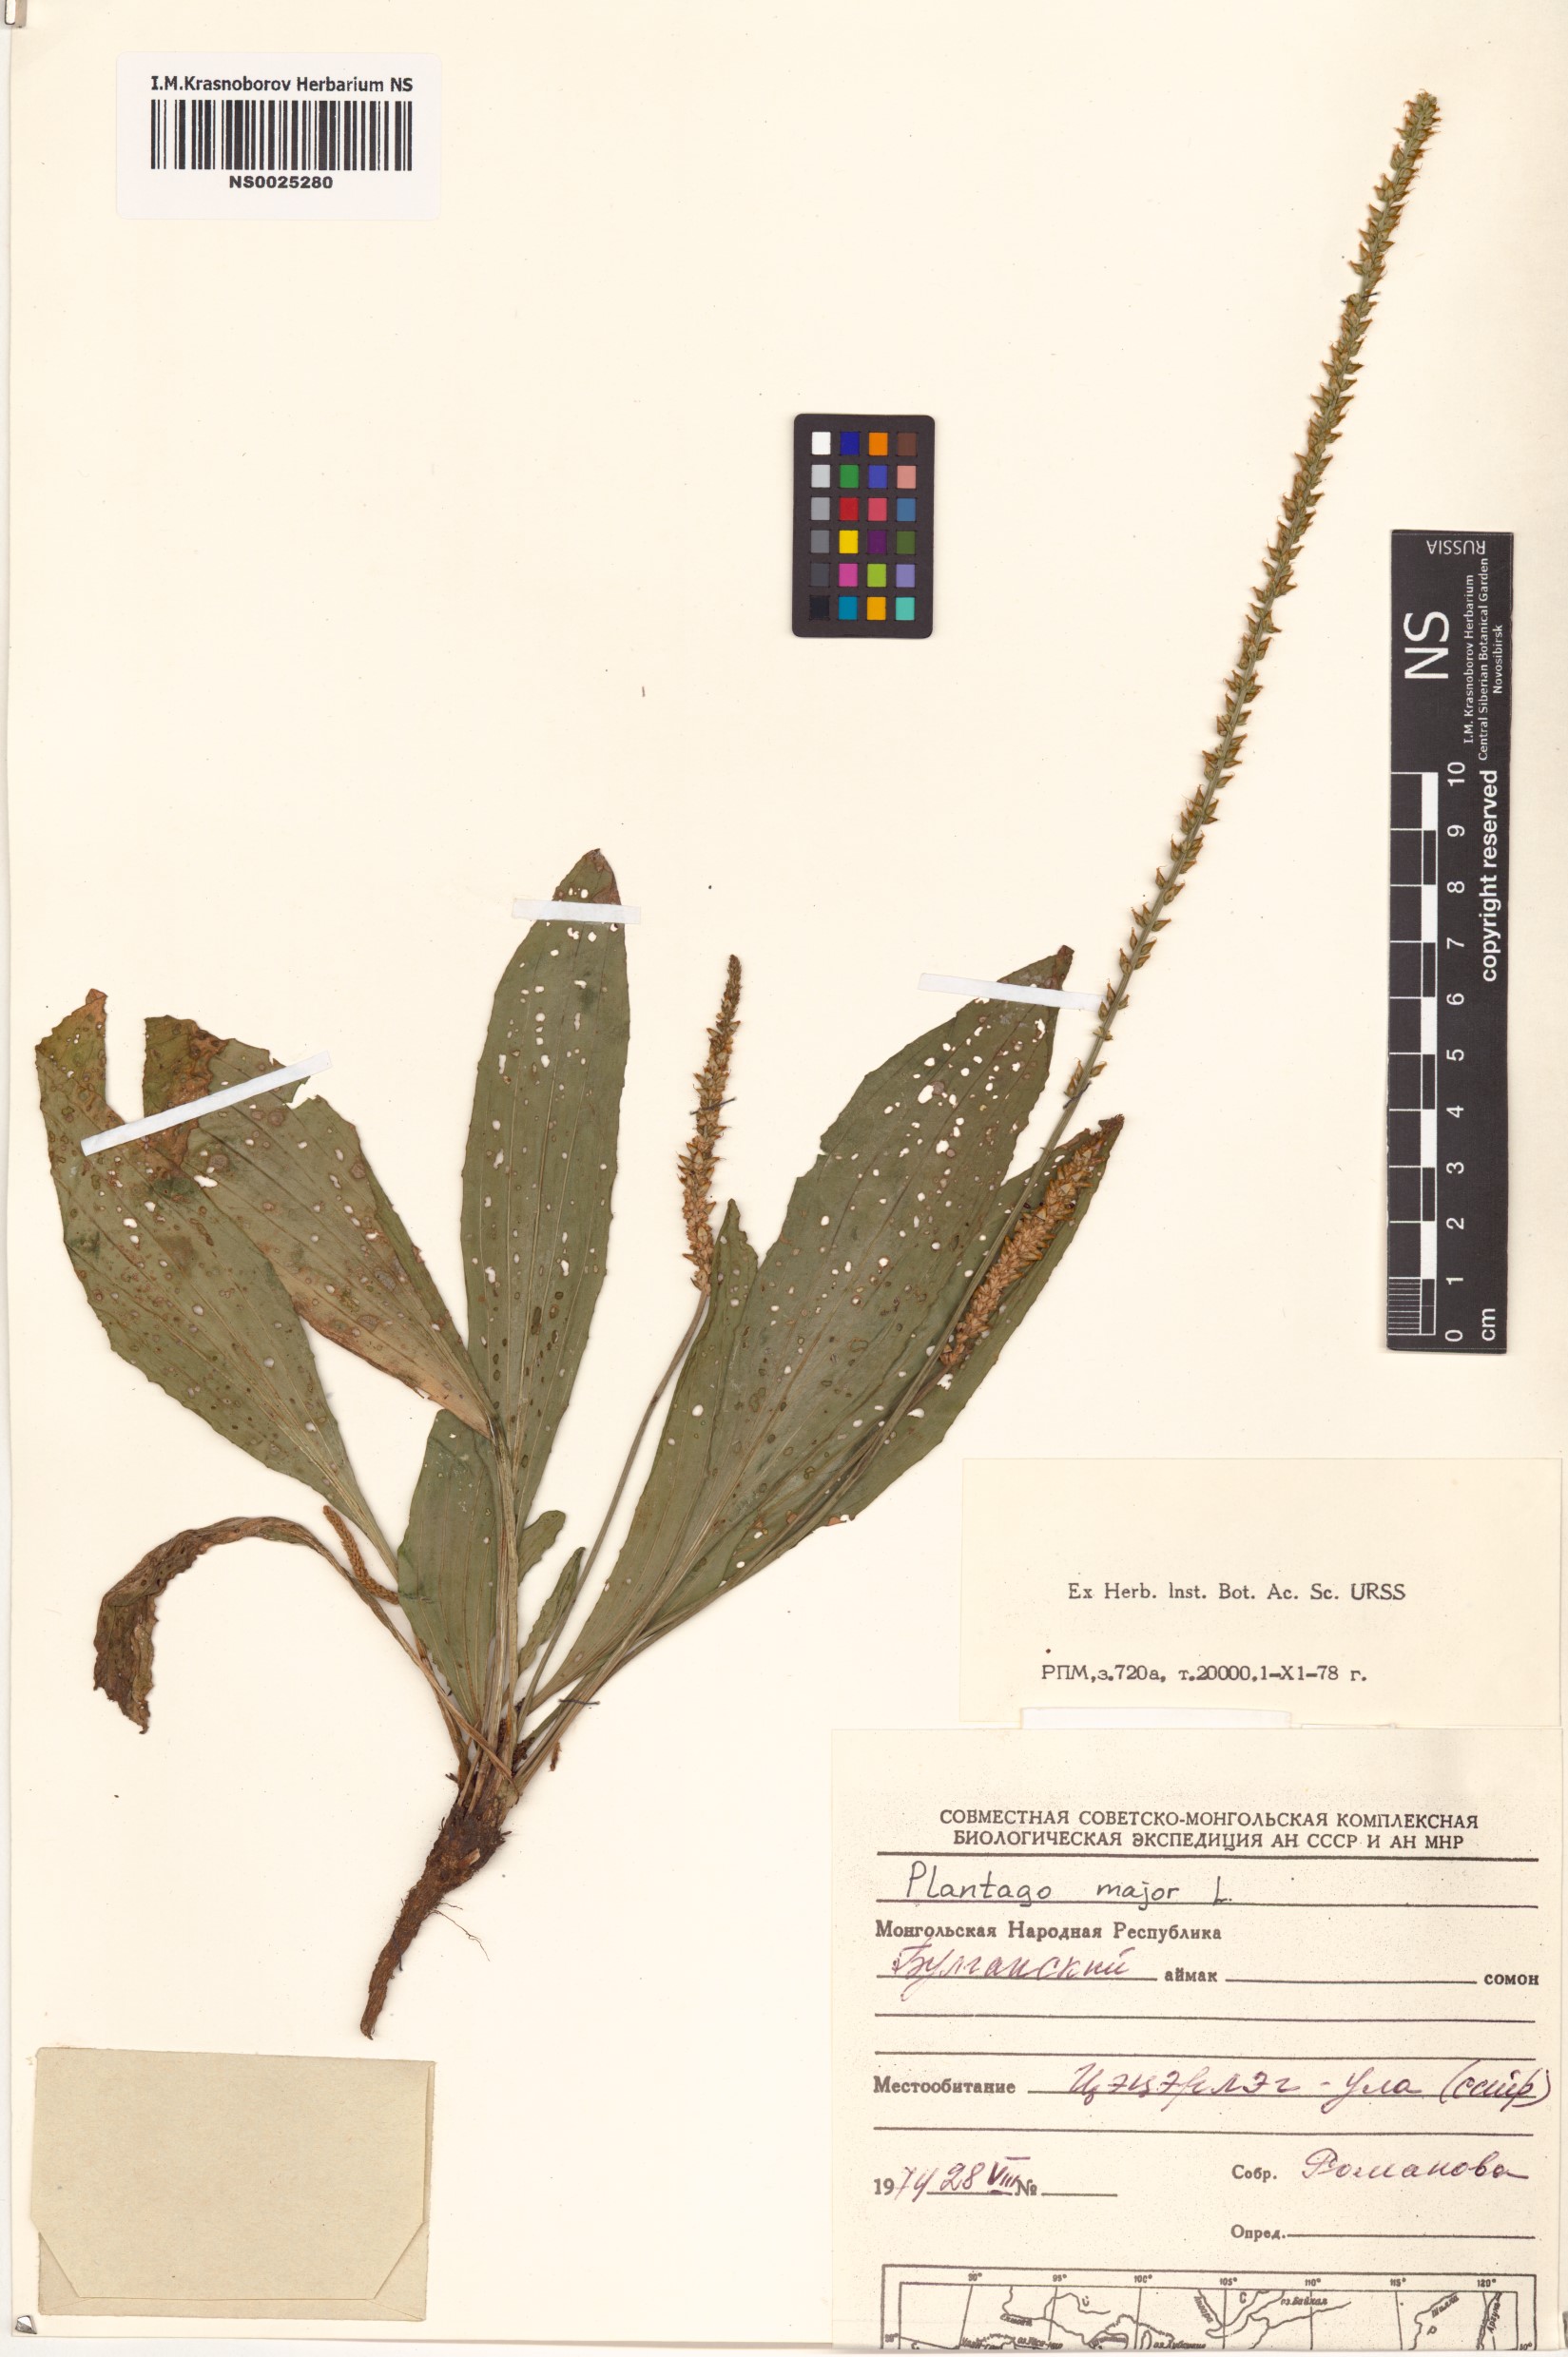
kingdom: Plantae
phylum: Tracheophyta
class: Magnoliopsida
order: Lamiales
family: Plantaginaceae
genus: Plantago
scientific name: Plantago major
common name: Common plantain
